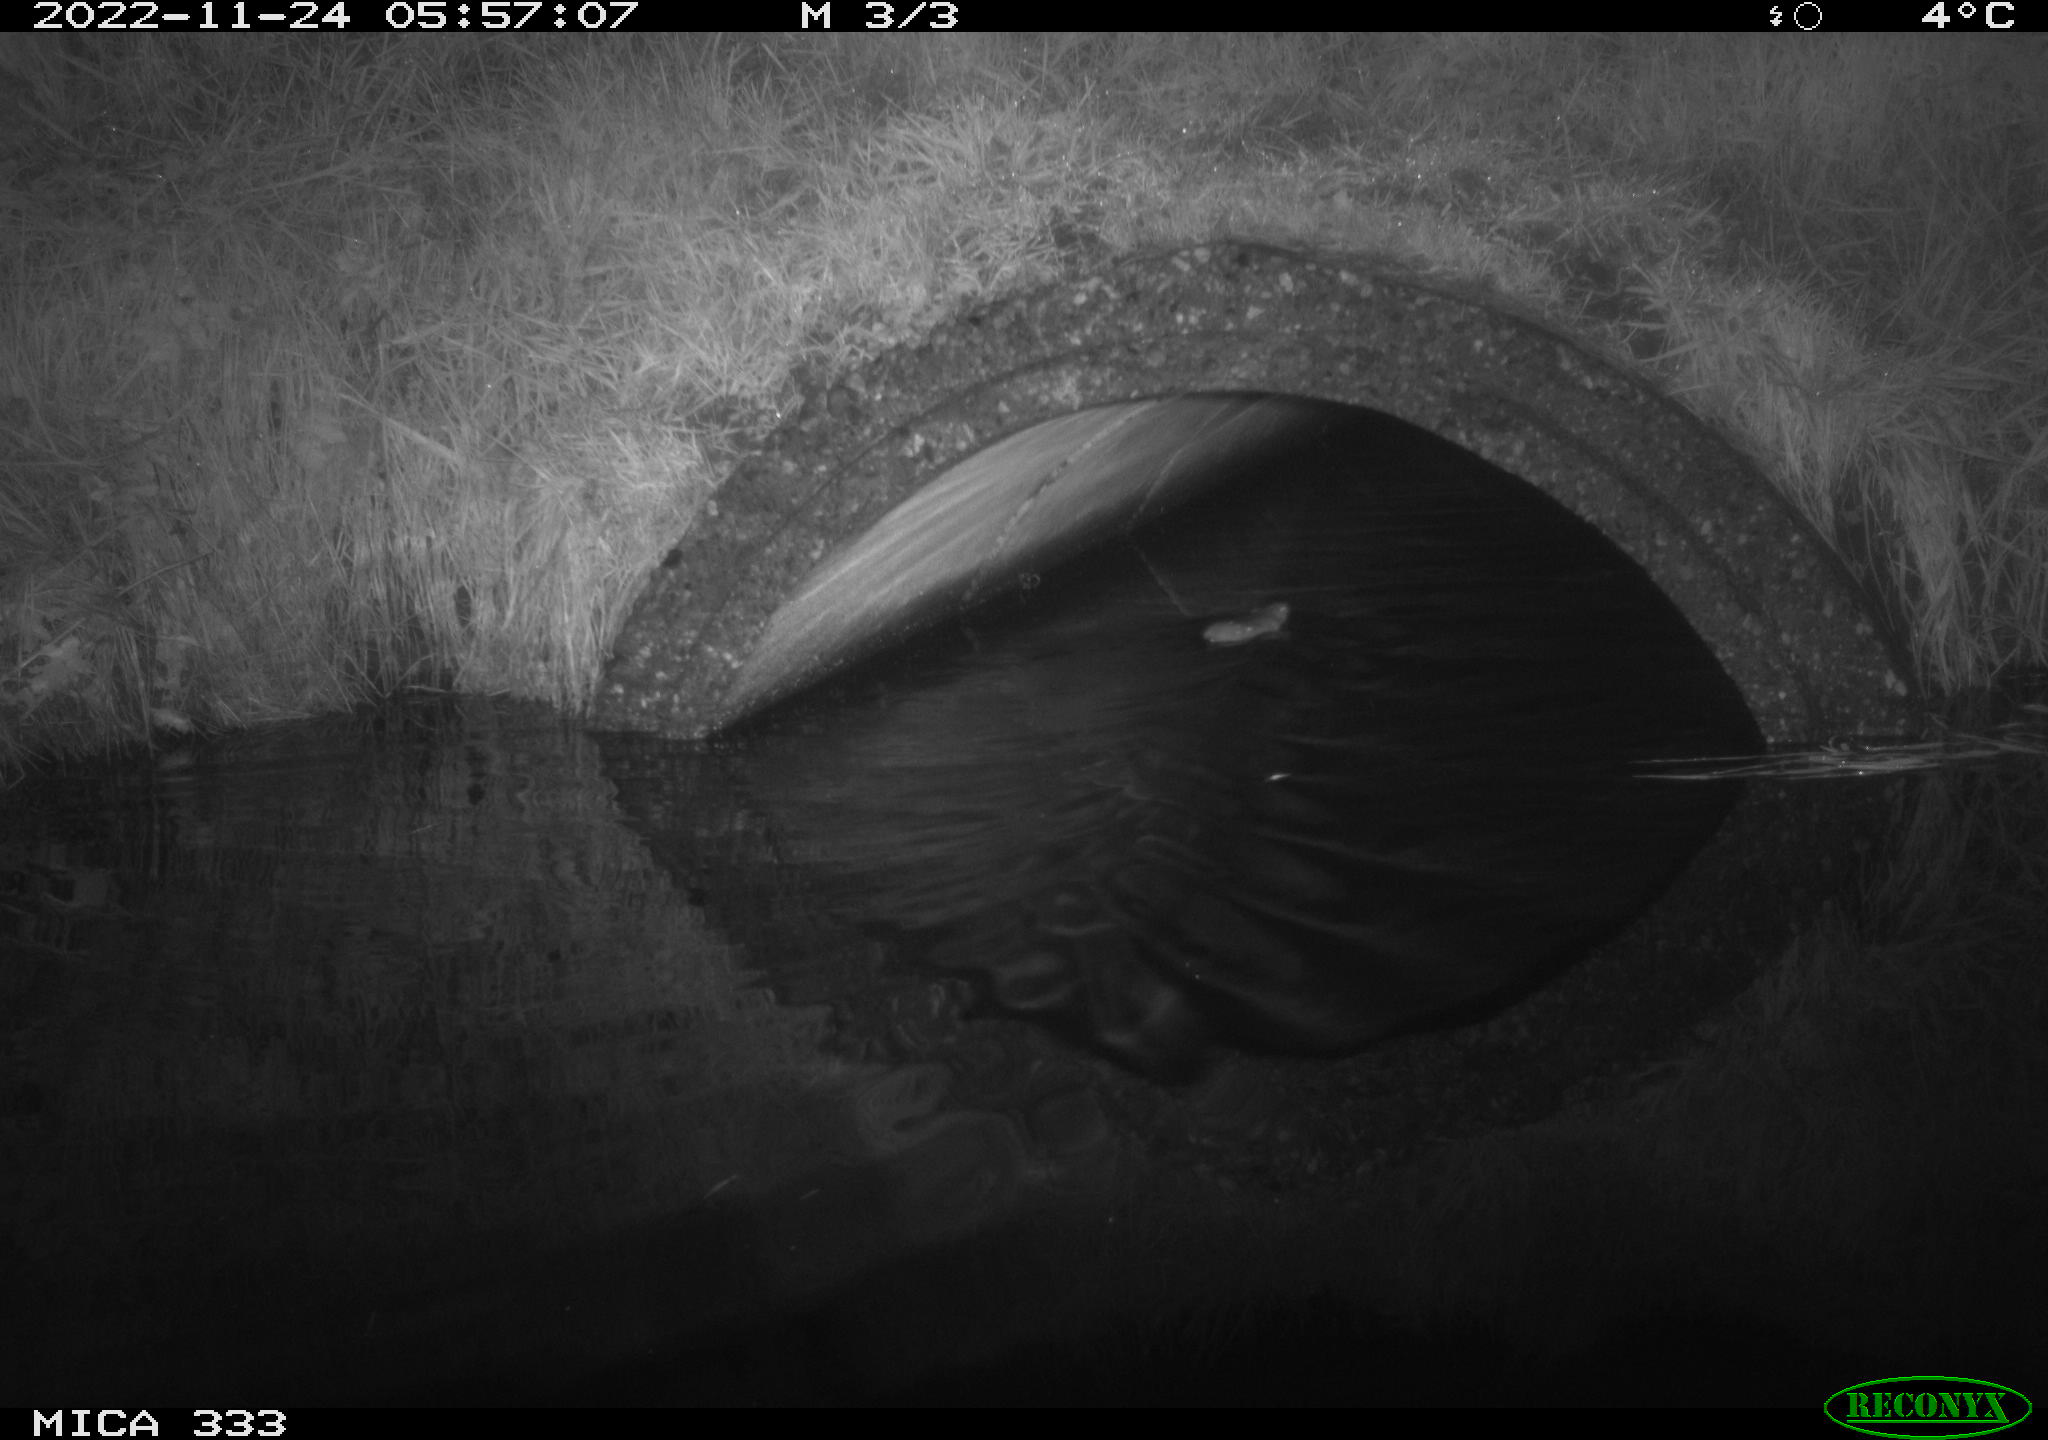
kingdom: Animalia
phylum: Chordata
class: Mammalia
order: Rodentia
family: Muridae
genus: Rattus
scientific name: Rattus norvegicus
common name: Brown rat
